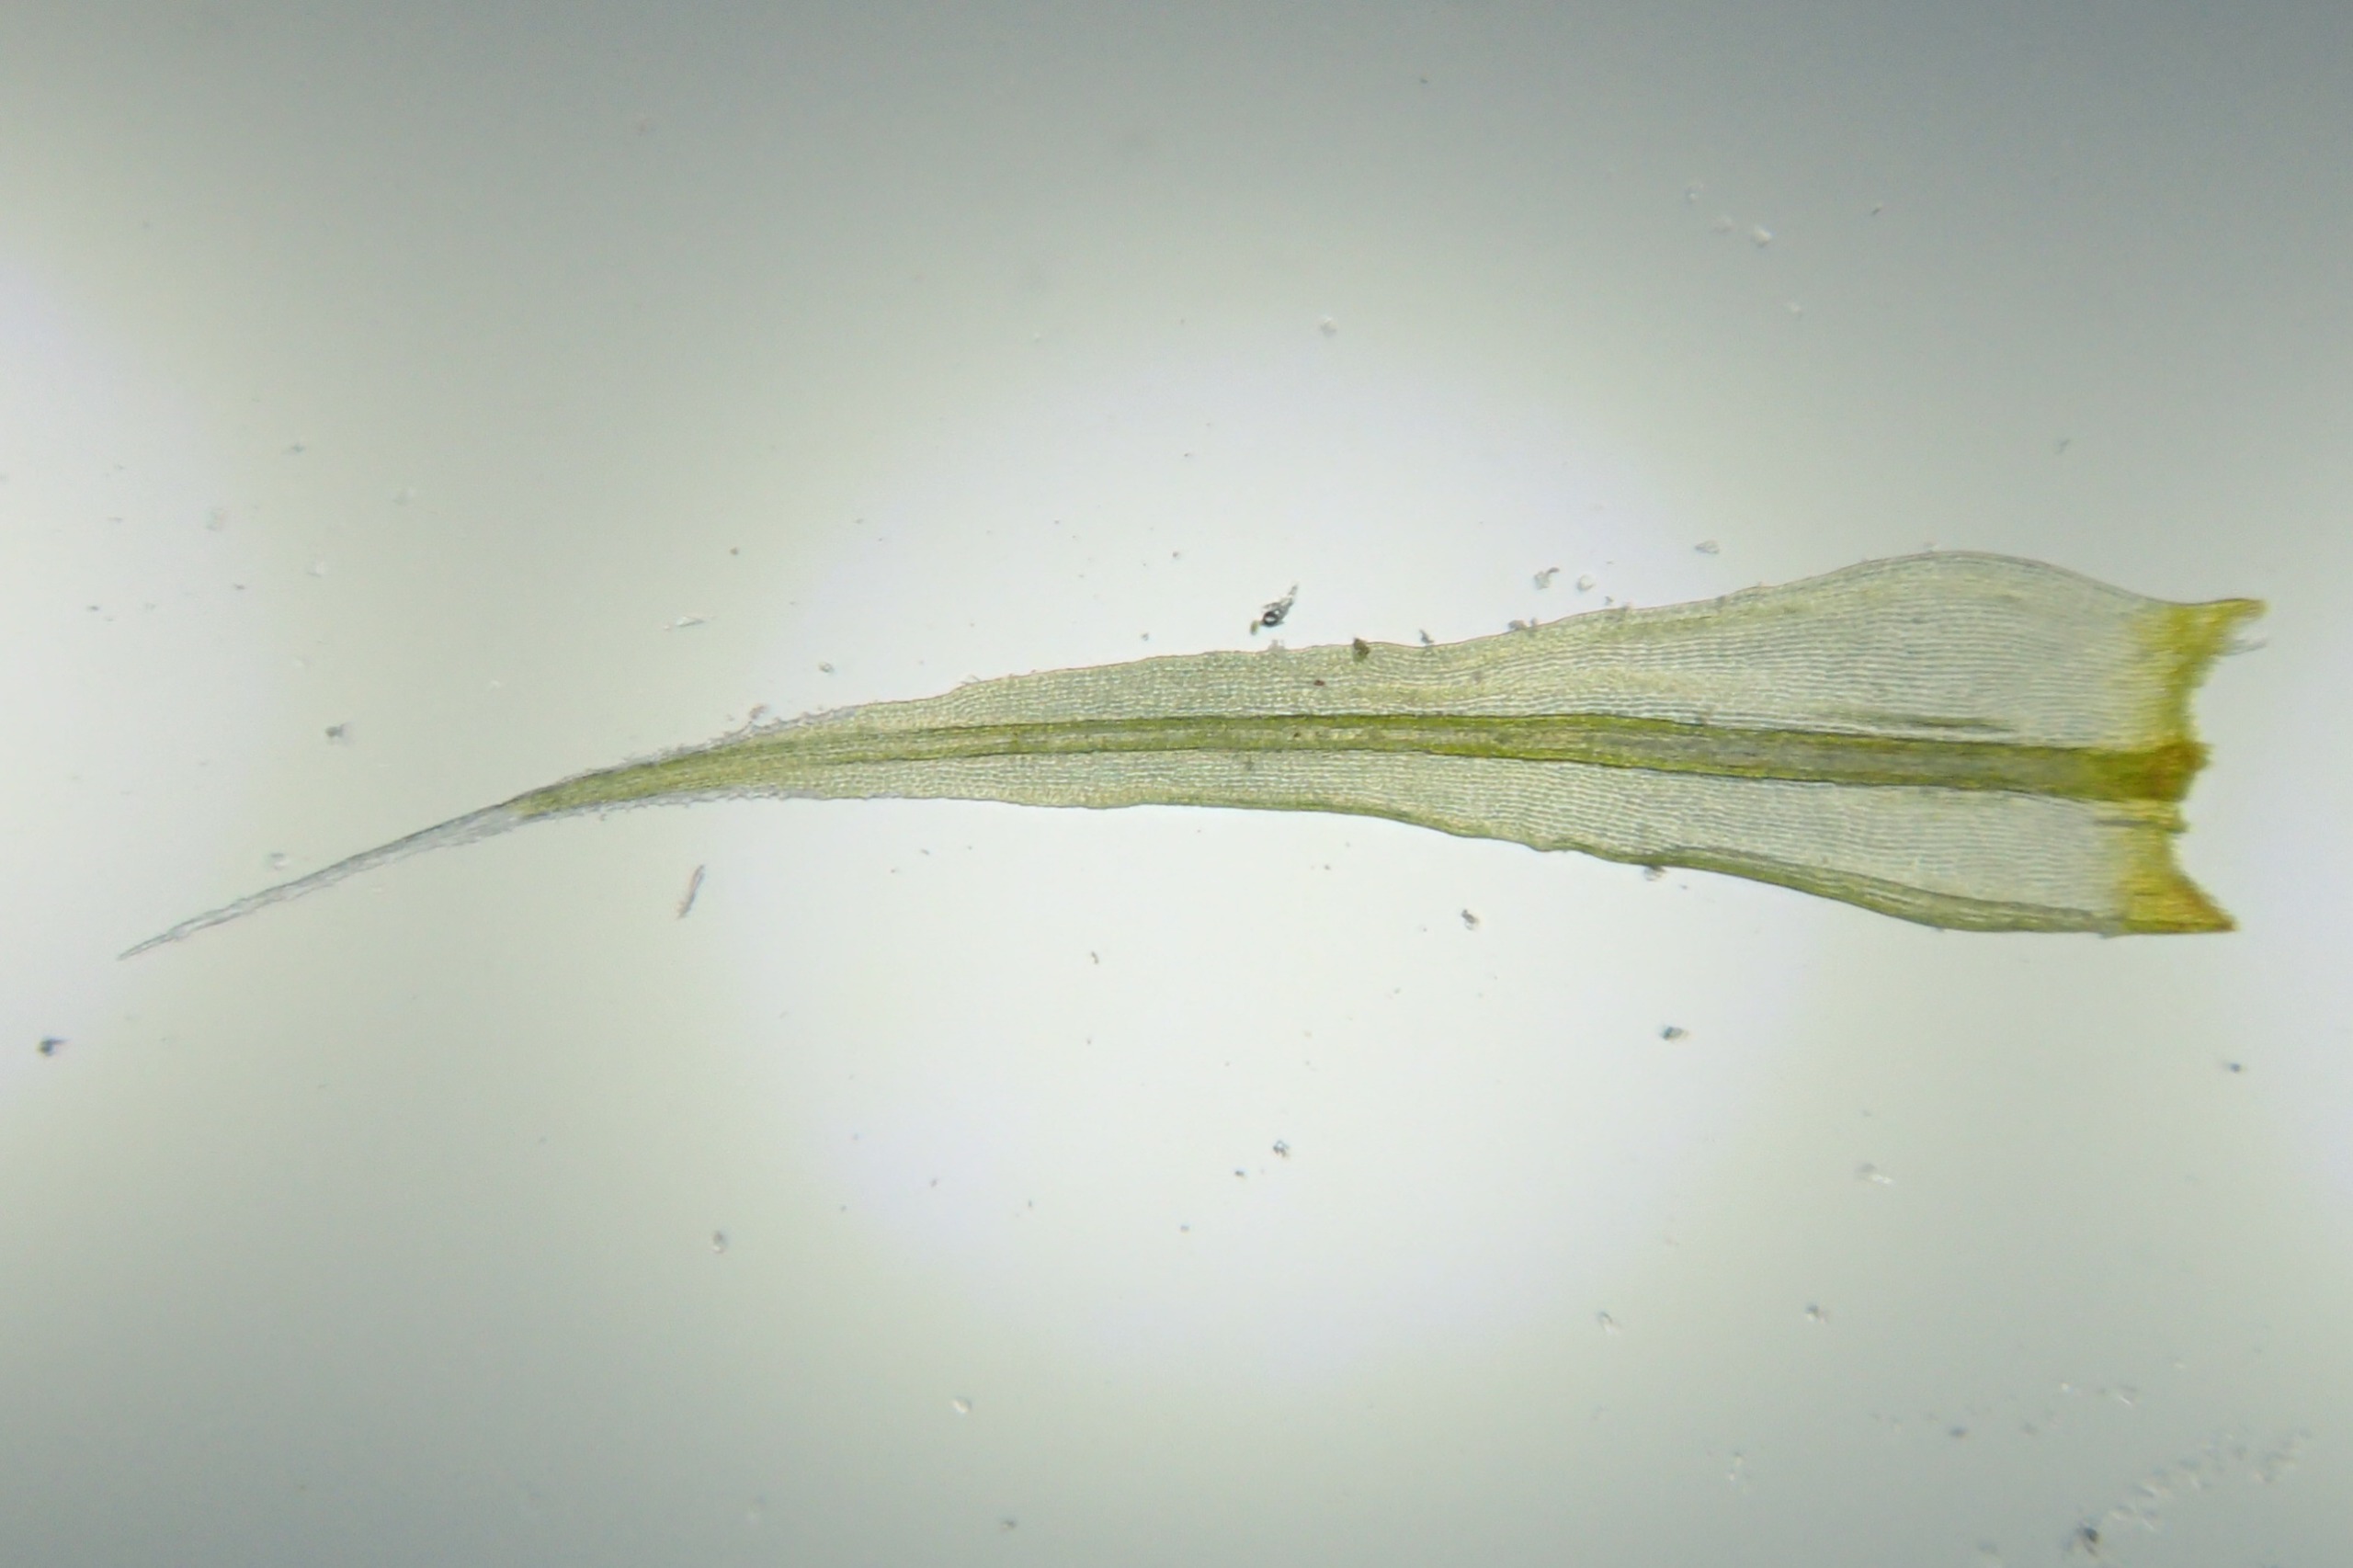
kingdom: Plantae
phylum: Bryophyta
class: Bryopsida
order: Grimmiales
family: Grimmiaceae
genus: Racomitrium
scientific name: Racomitrium lanuginosum
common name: Stor børstemos
